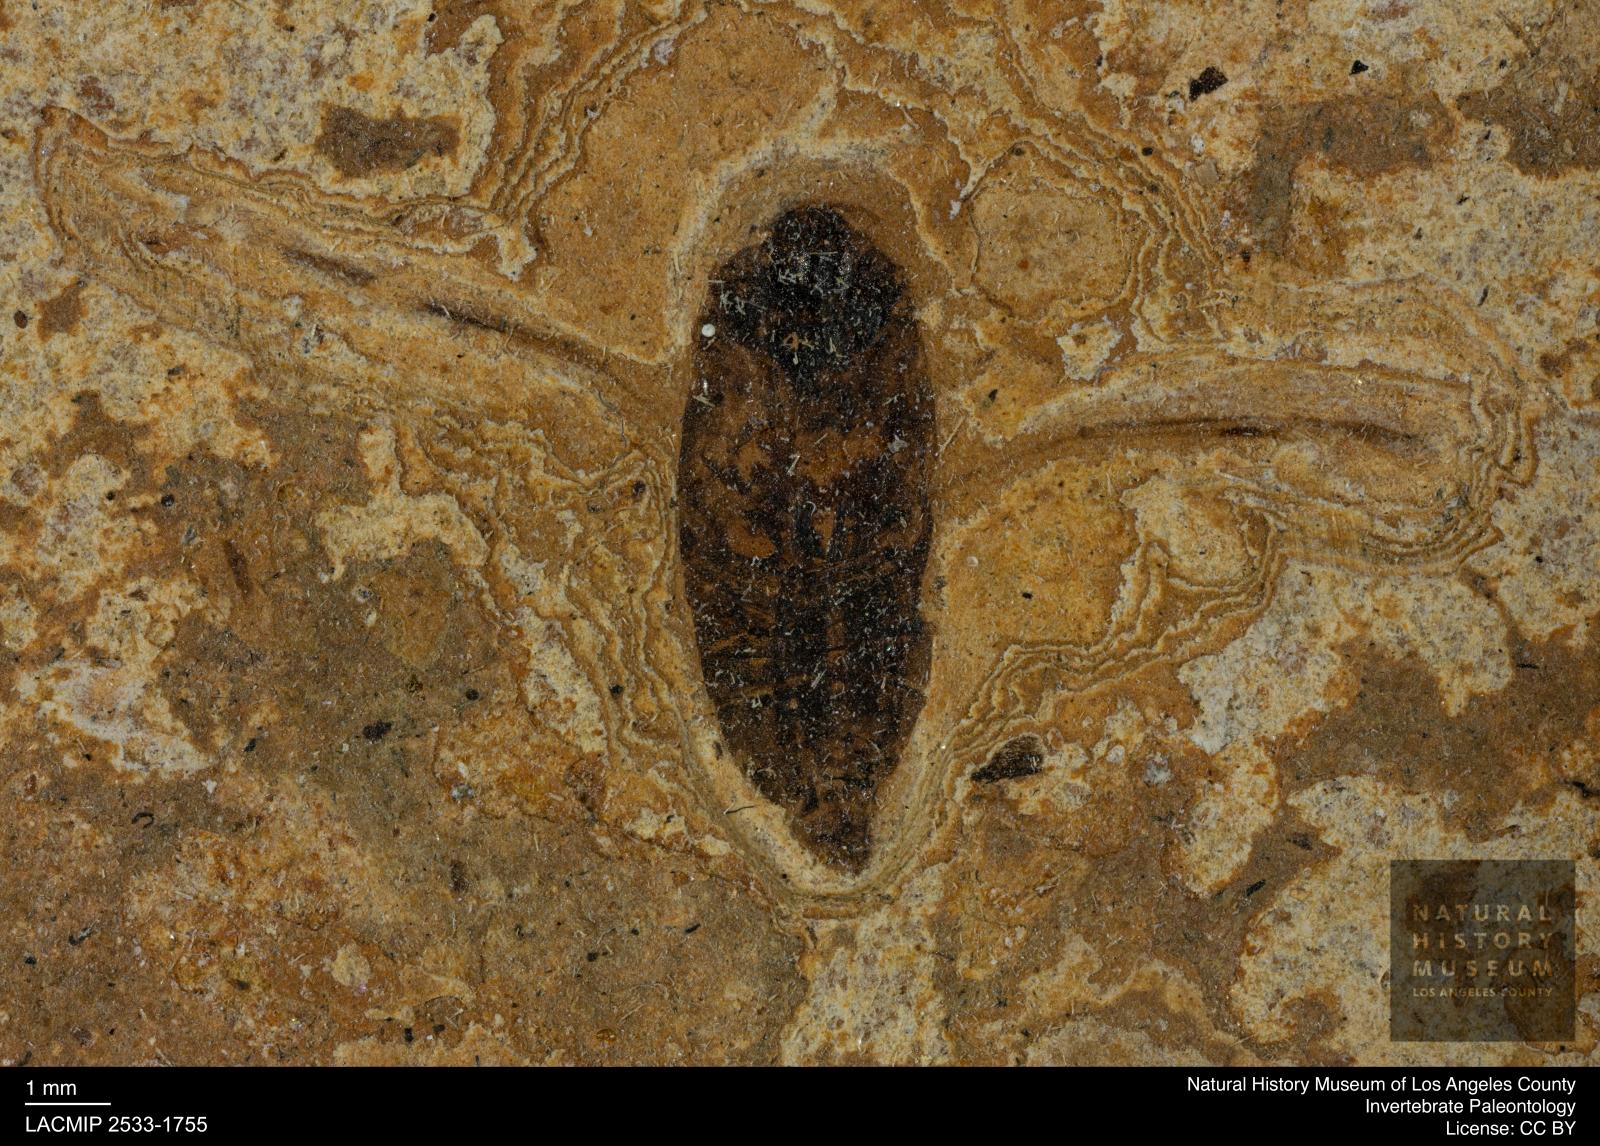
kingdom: Animalia
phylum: Arthropoda
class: Insecta
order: Hemiptera
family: Notonectidae
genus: Notonecta
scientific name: Notonecta
